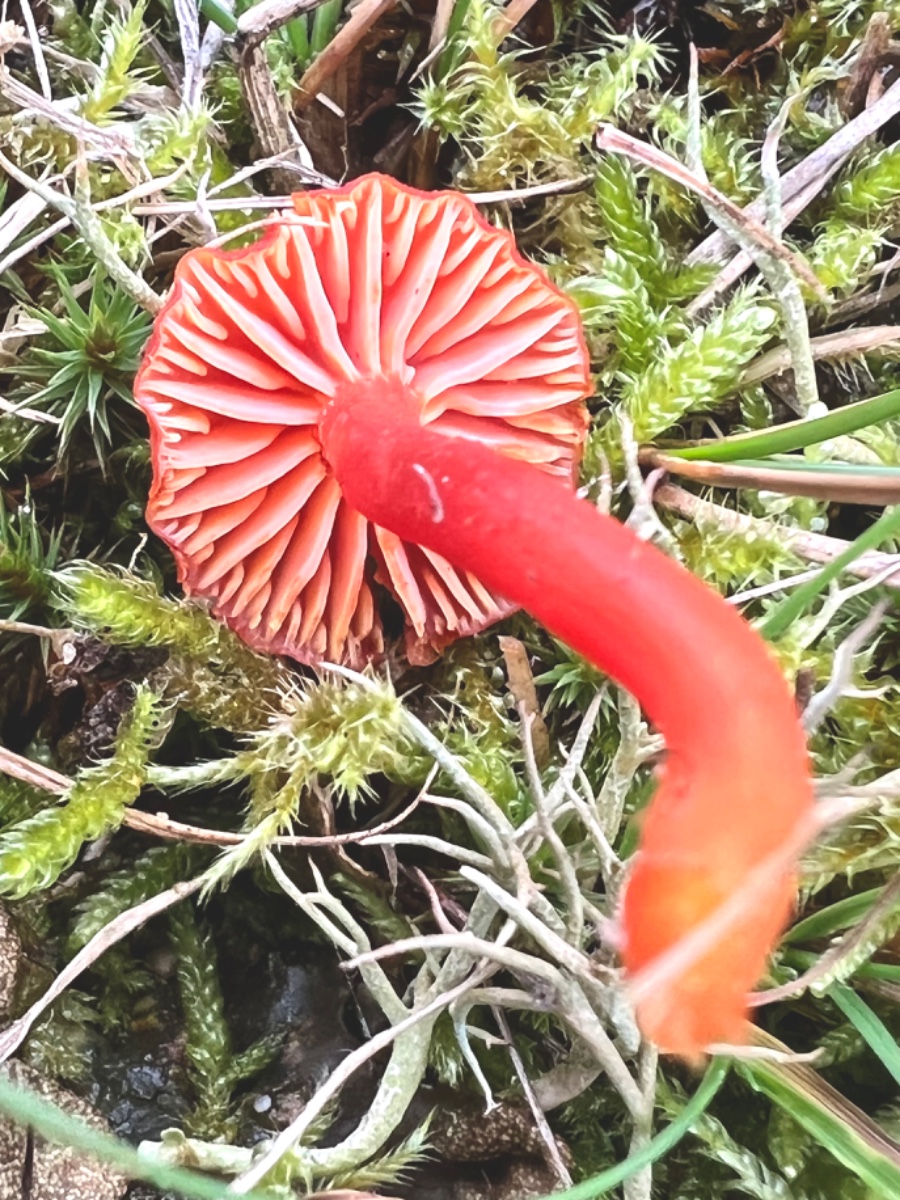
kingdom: Fungi
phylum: Basidiomycota
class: Agaricomycetes
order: Agaricales
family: Hygrophoraceae
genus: Hygrocybe
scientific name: Hygrocybe miniata
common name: mønje-vokshat
